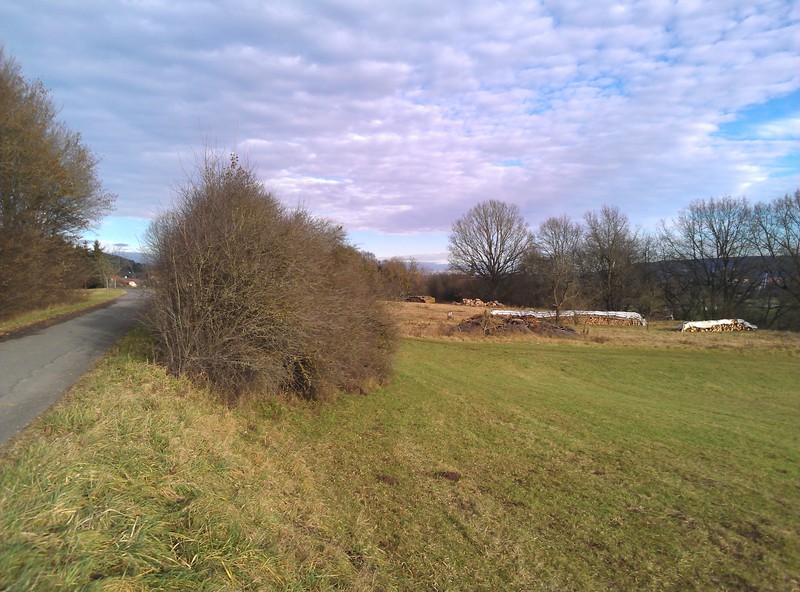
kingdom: Fungi
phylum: Basidiomycota
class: Agaricomycetes
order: Atheliales
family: Atheliaceae
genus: Athelia
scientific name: Athelia arachnoidea
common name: Candelabra duster
